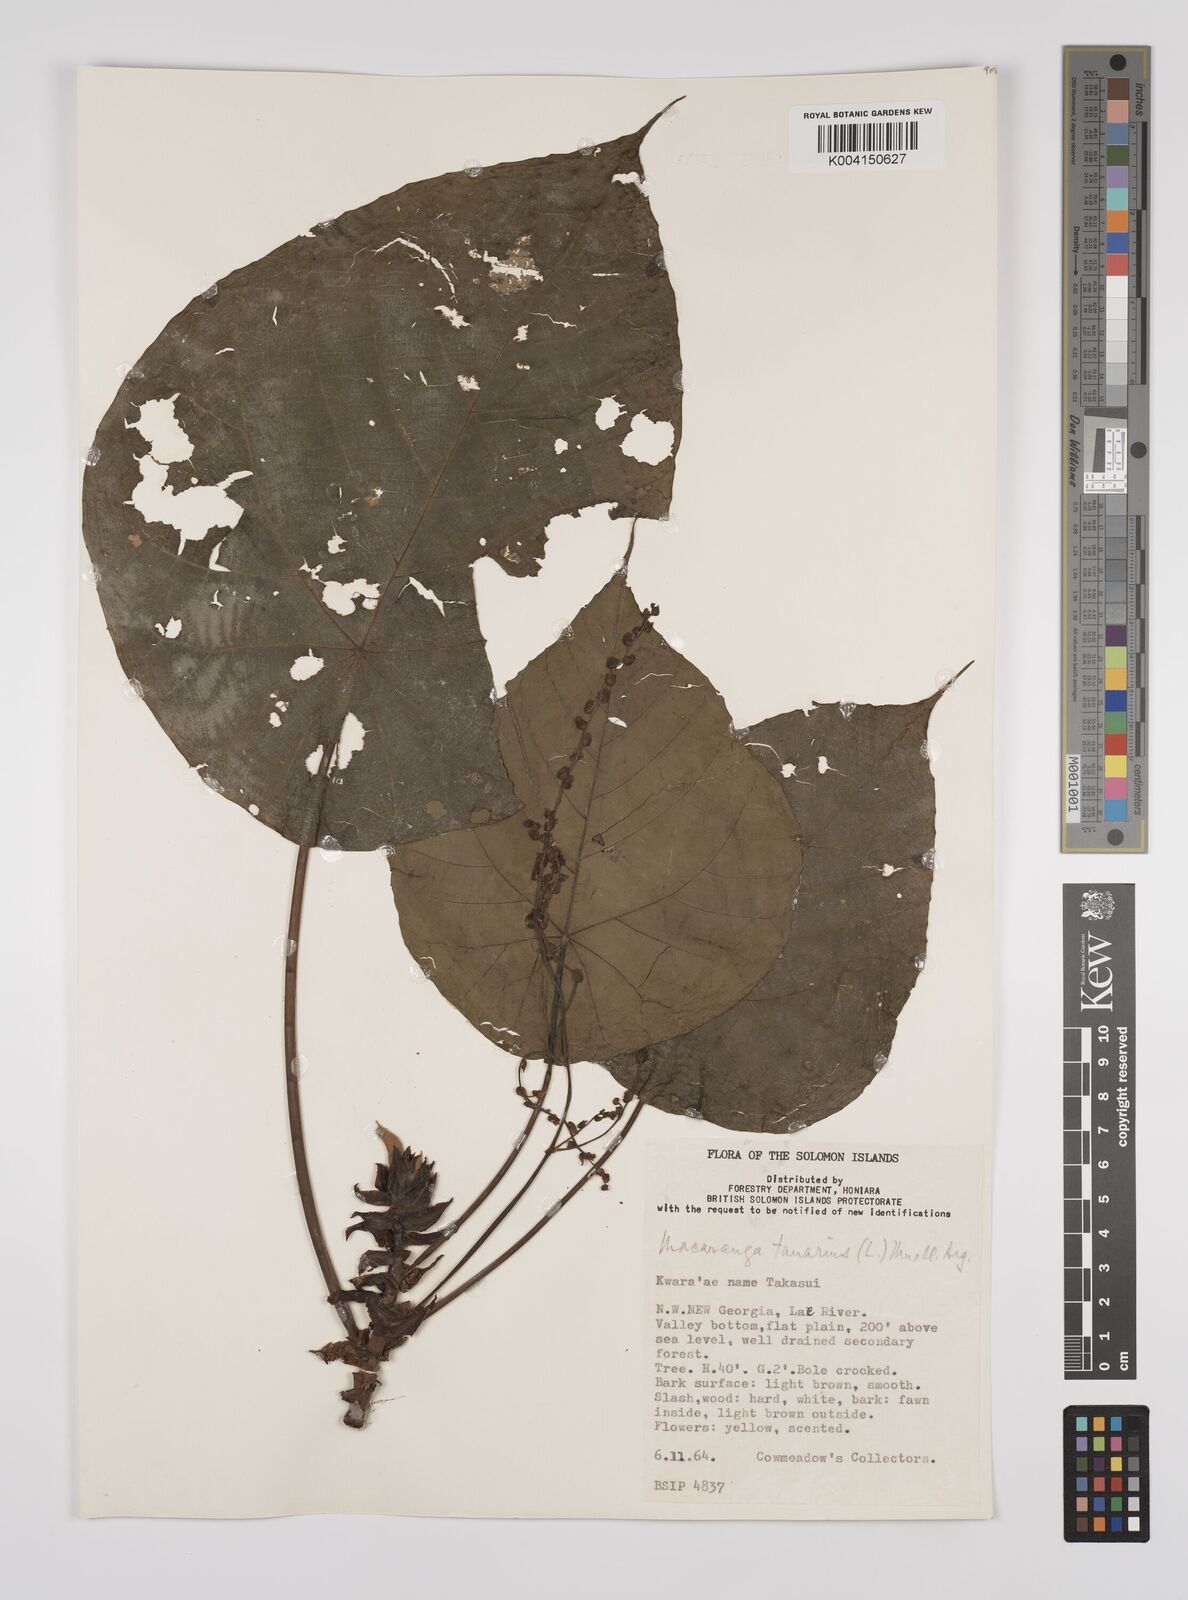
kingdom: Plantae
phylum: Tracheophyta
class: Magnoliopsida
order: Malpighiales
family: Euphorbiaceae
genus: Macaranga
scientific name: Macaranga tanarius
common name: Parasol leaf tree
